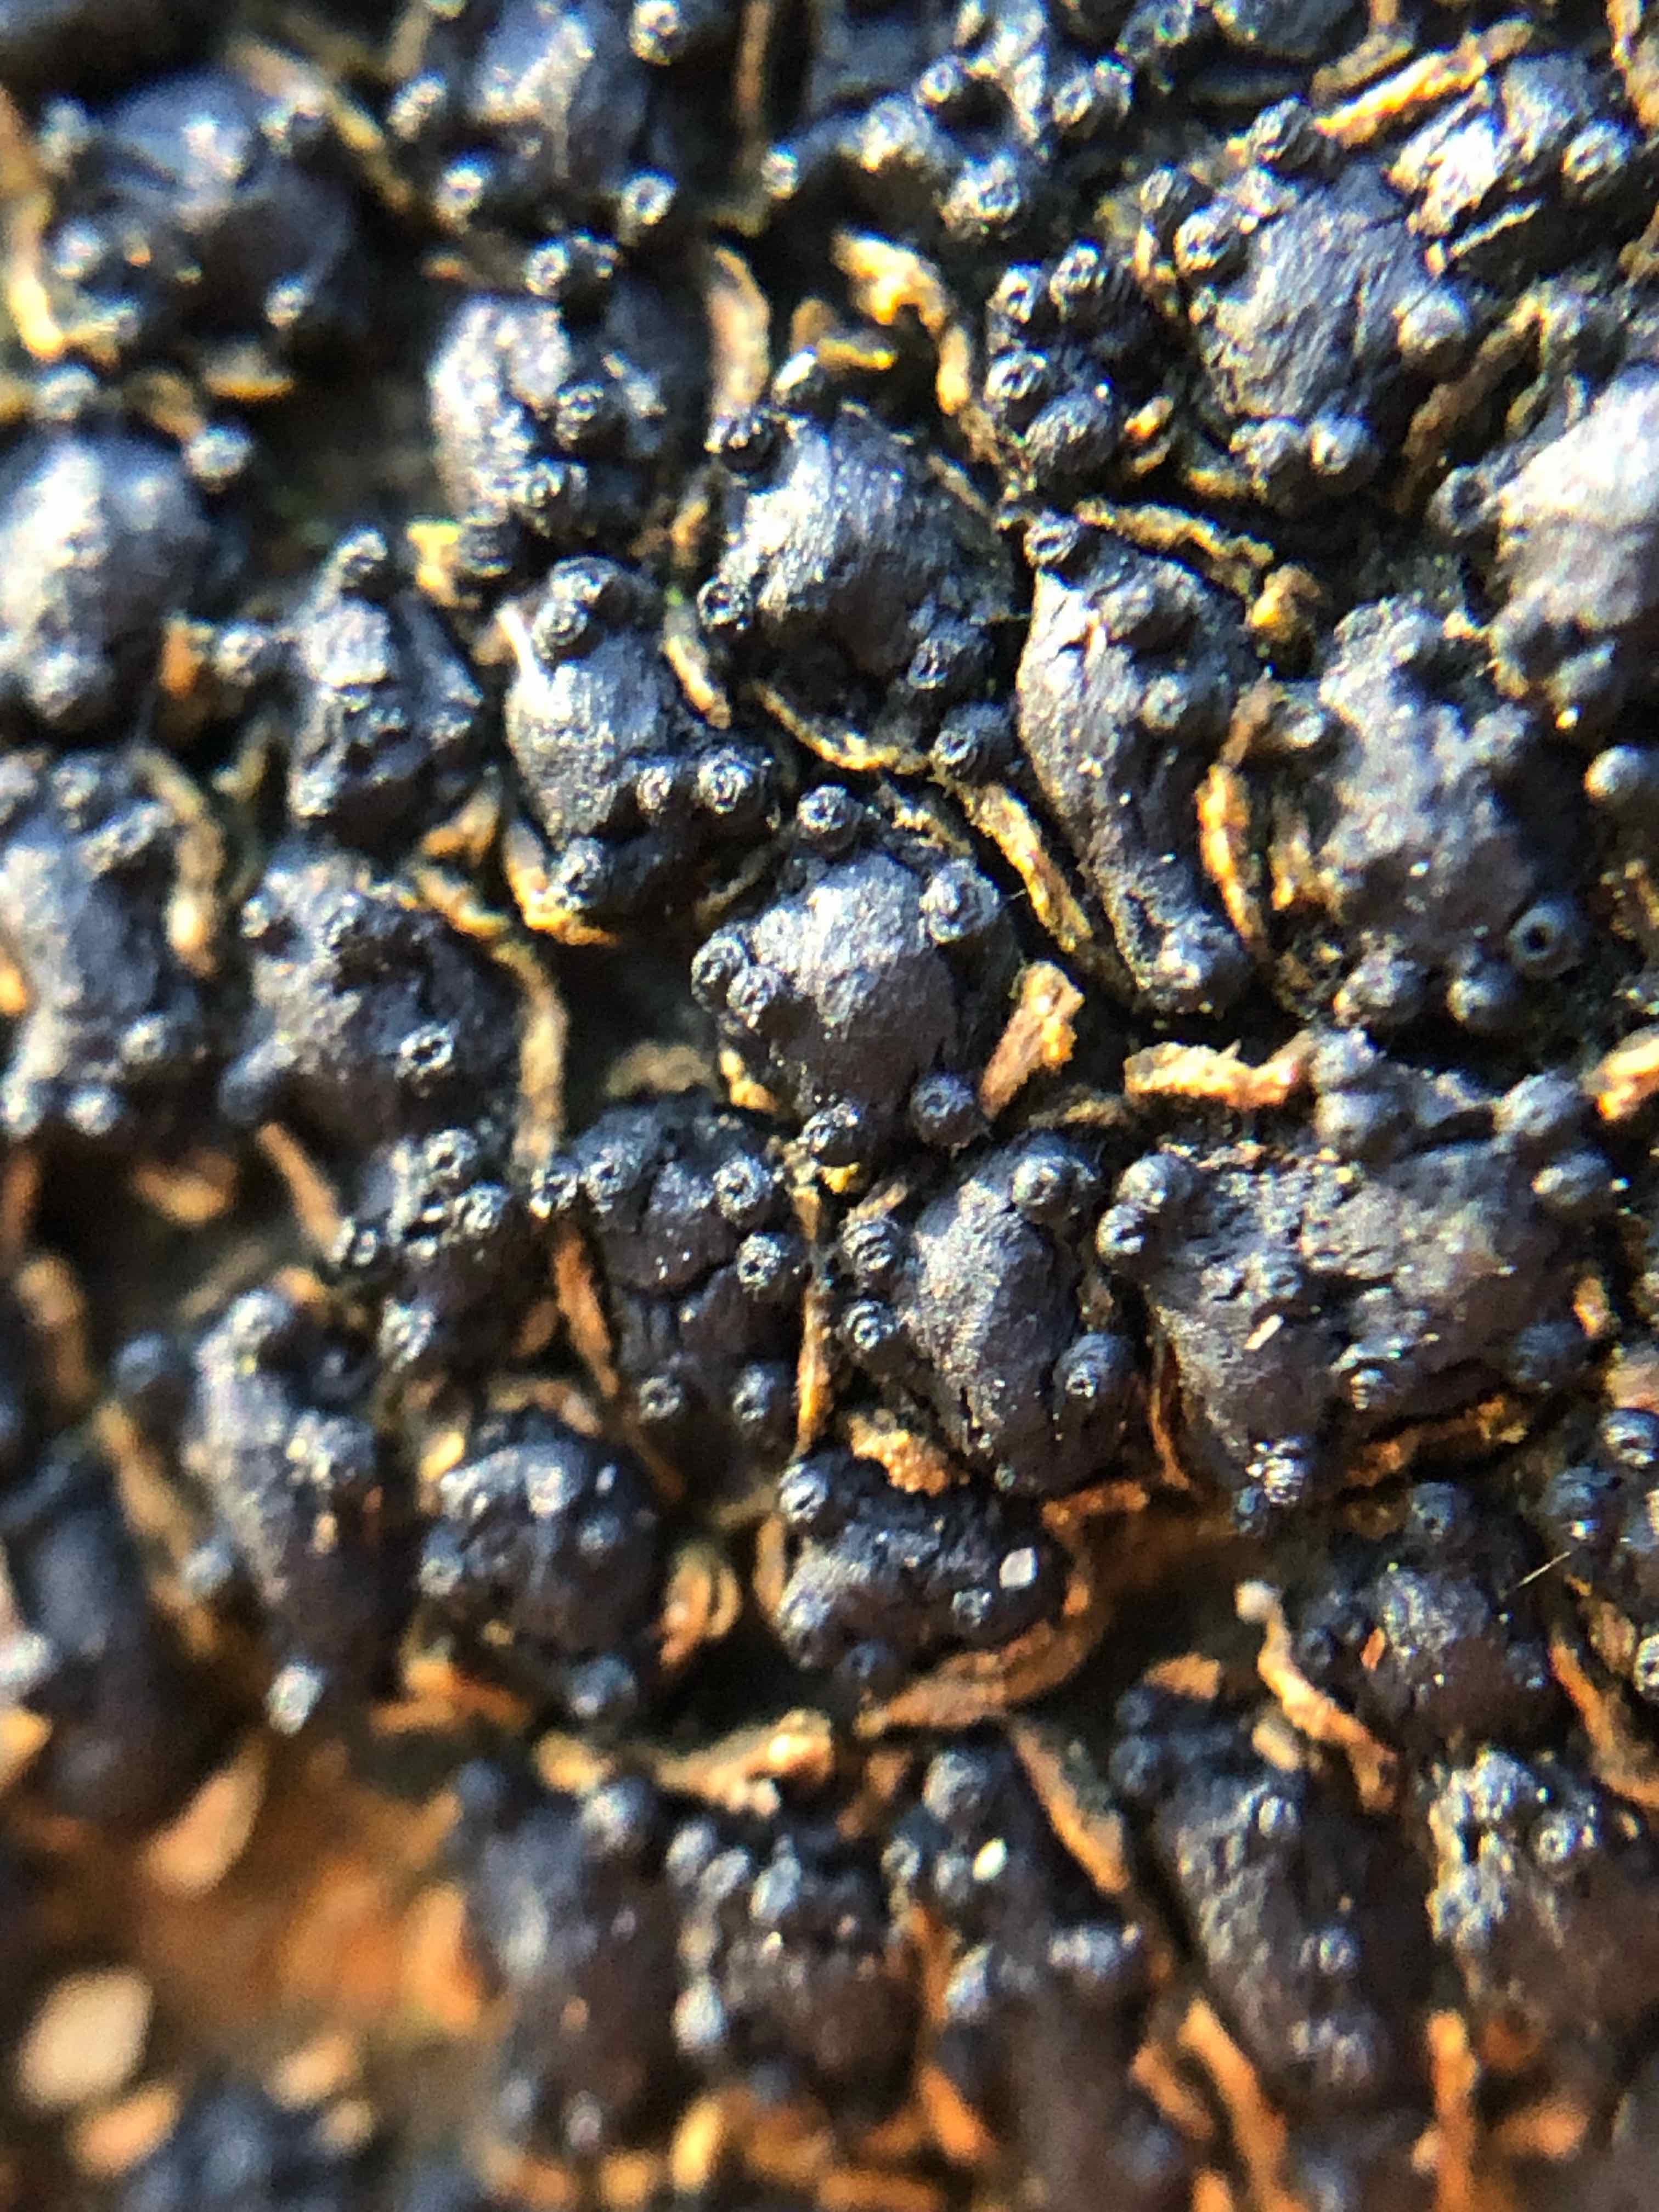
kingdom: Fungi
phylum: Ascomycota
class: Sordariomycetes
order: Xylariales
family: Melogrammataceae
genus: Melogramma
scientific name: Melogramma spiniferum
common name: bøgefod-kulhals
